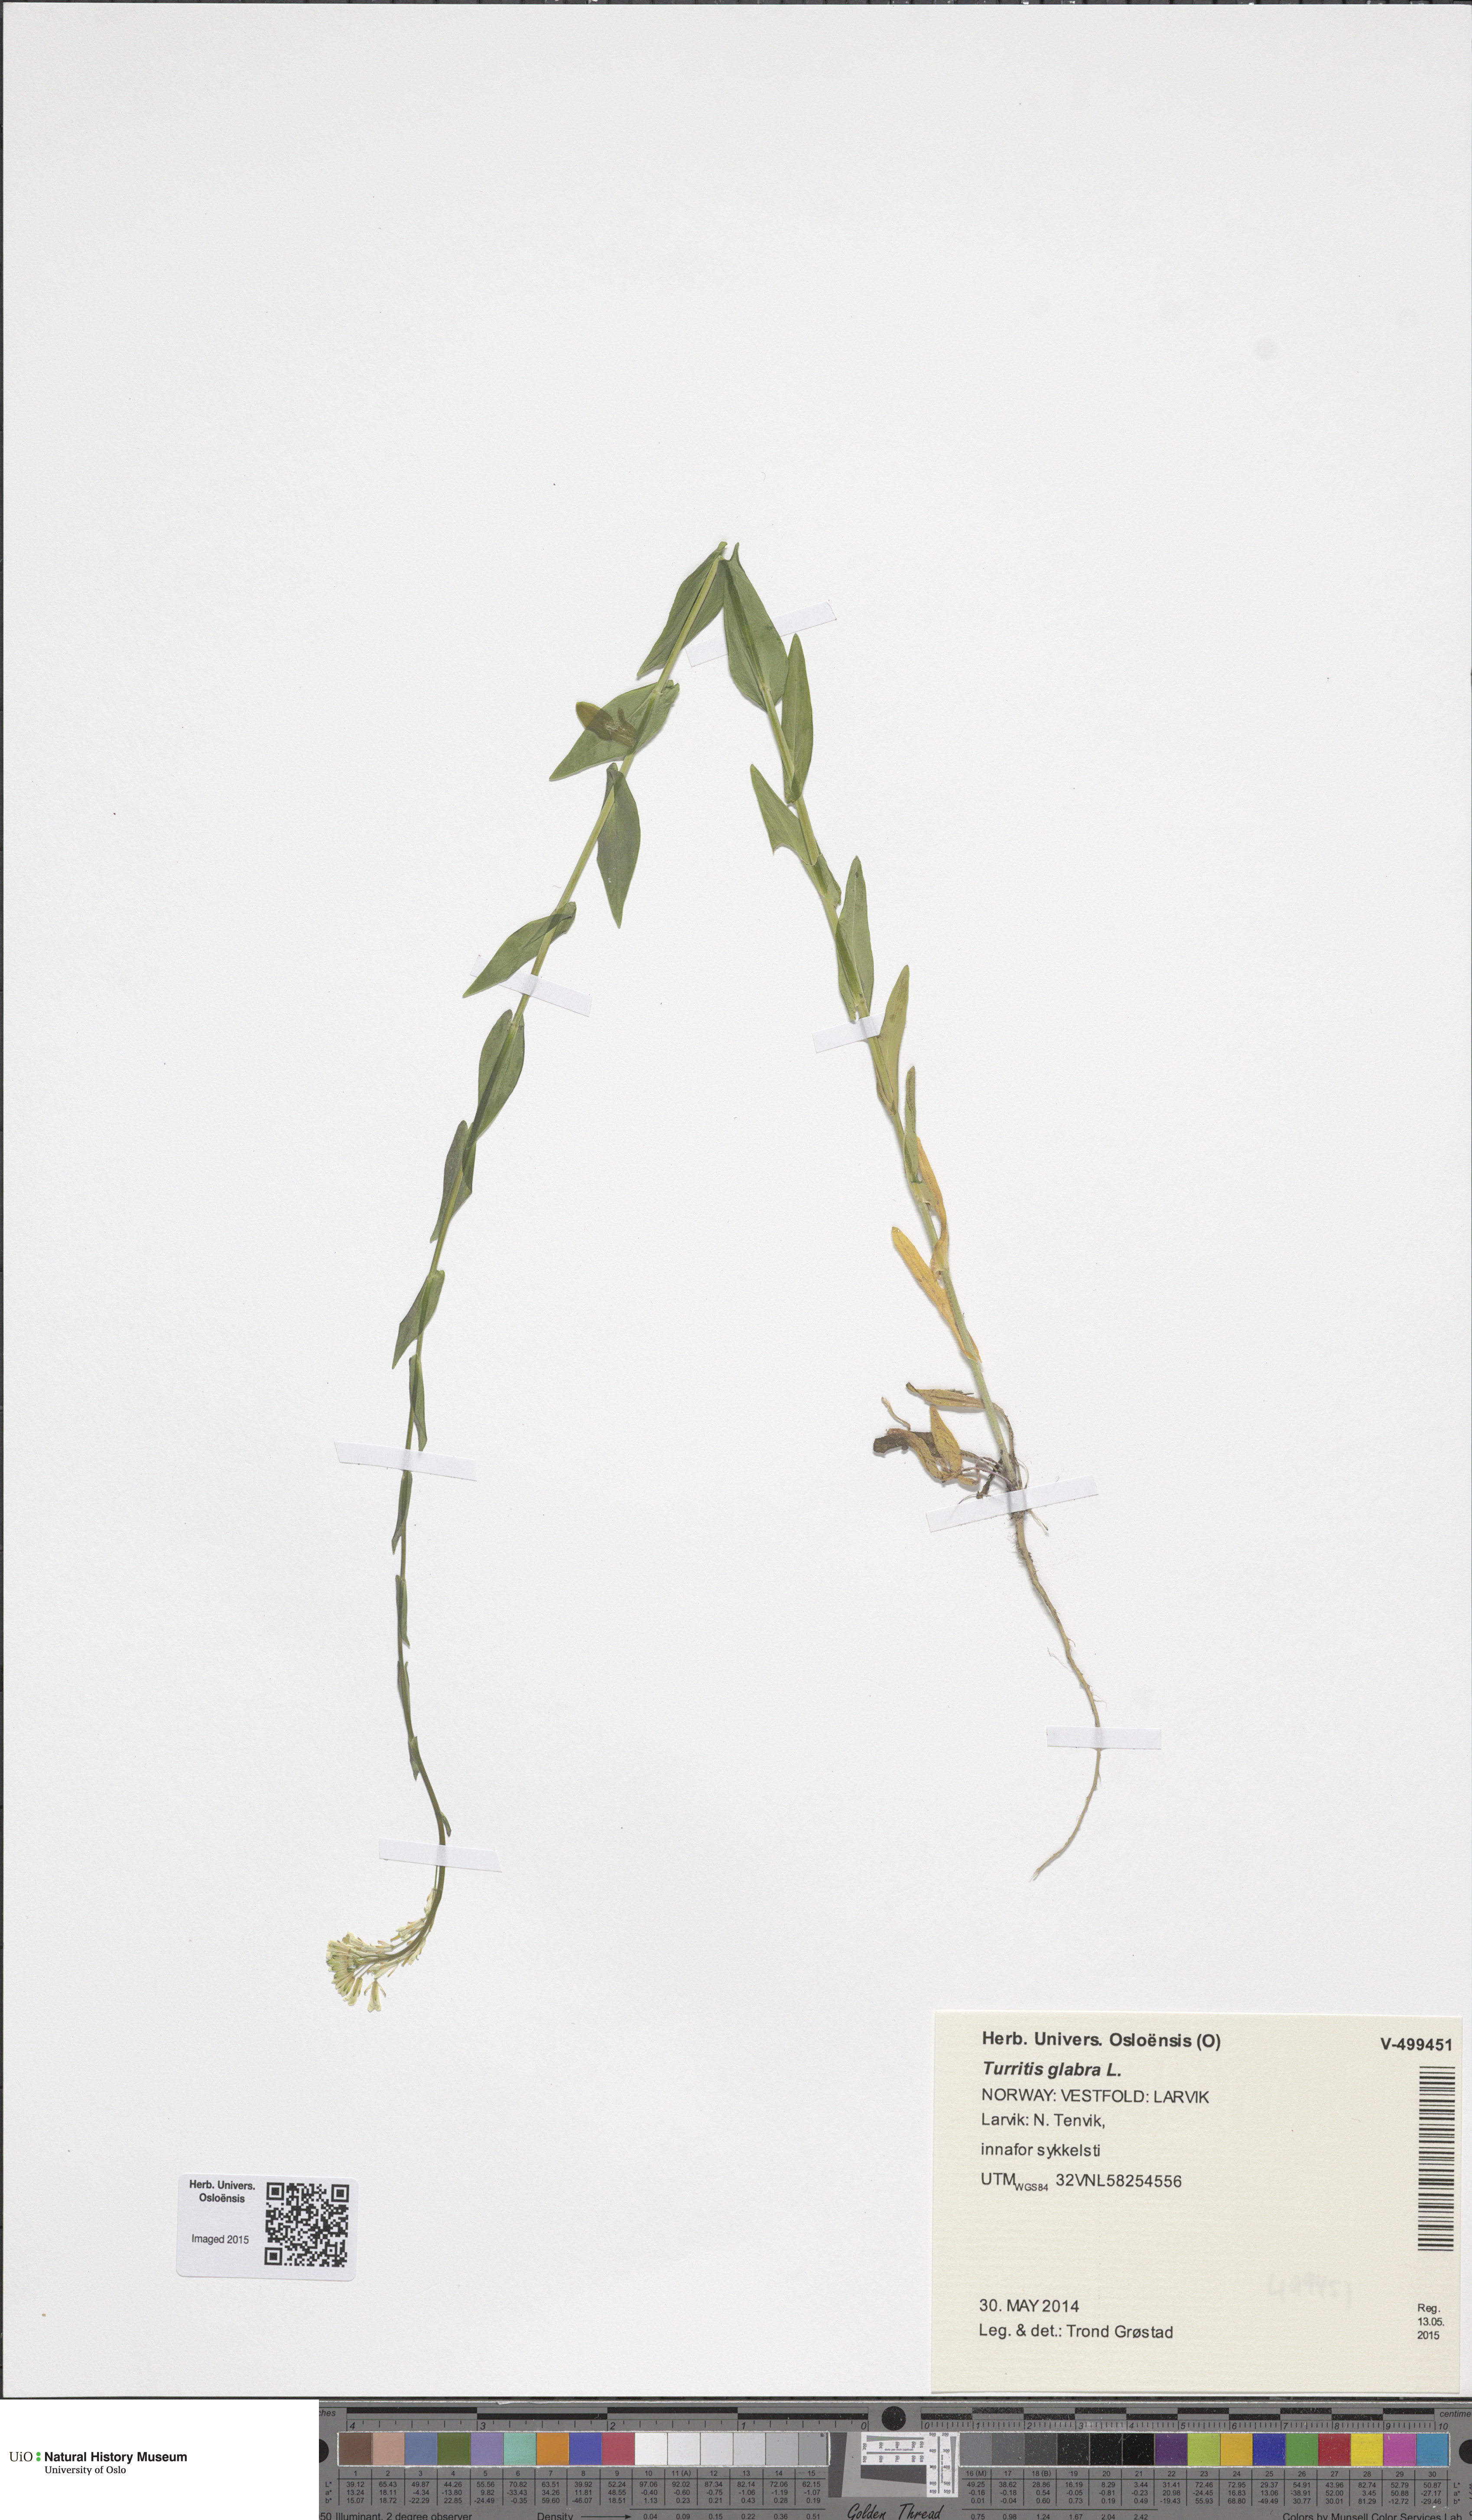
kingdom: Plantae
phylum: Tracheophyta
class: Magnoliopsida
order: Brassicales
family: Brassicaceae
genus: Turritis
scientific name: Turritis glabra
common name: Tower rockcress
